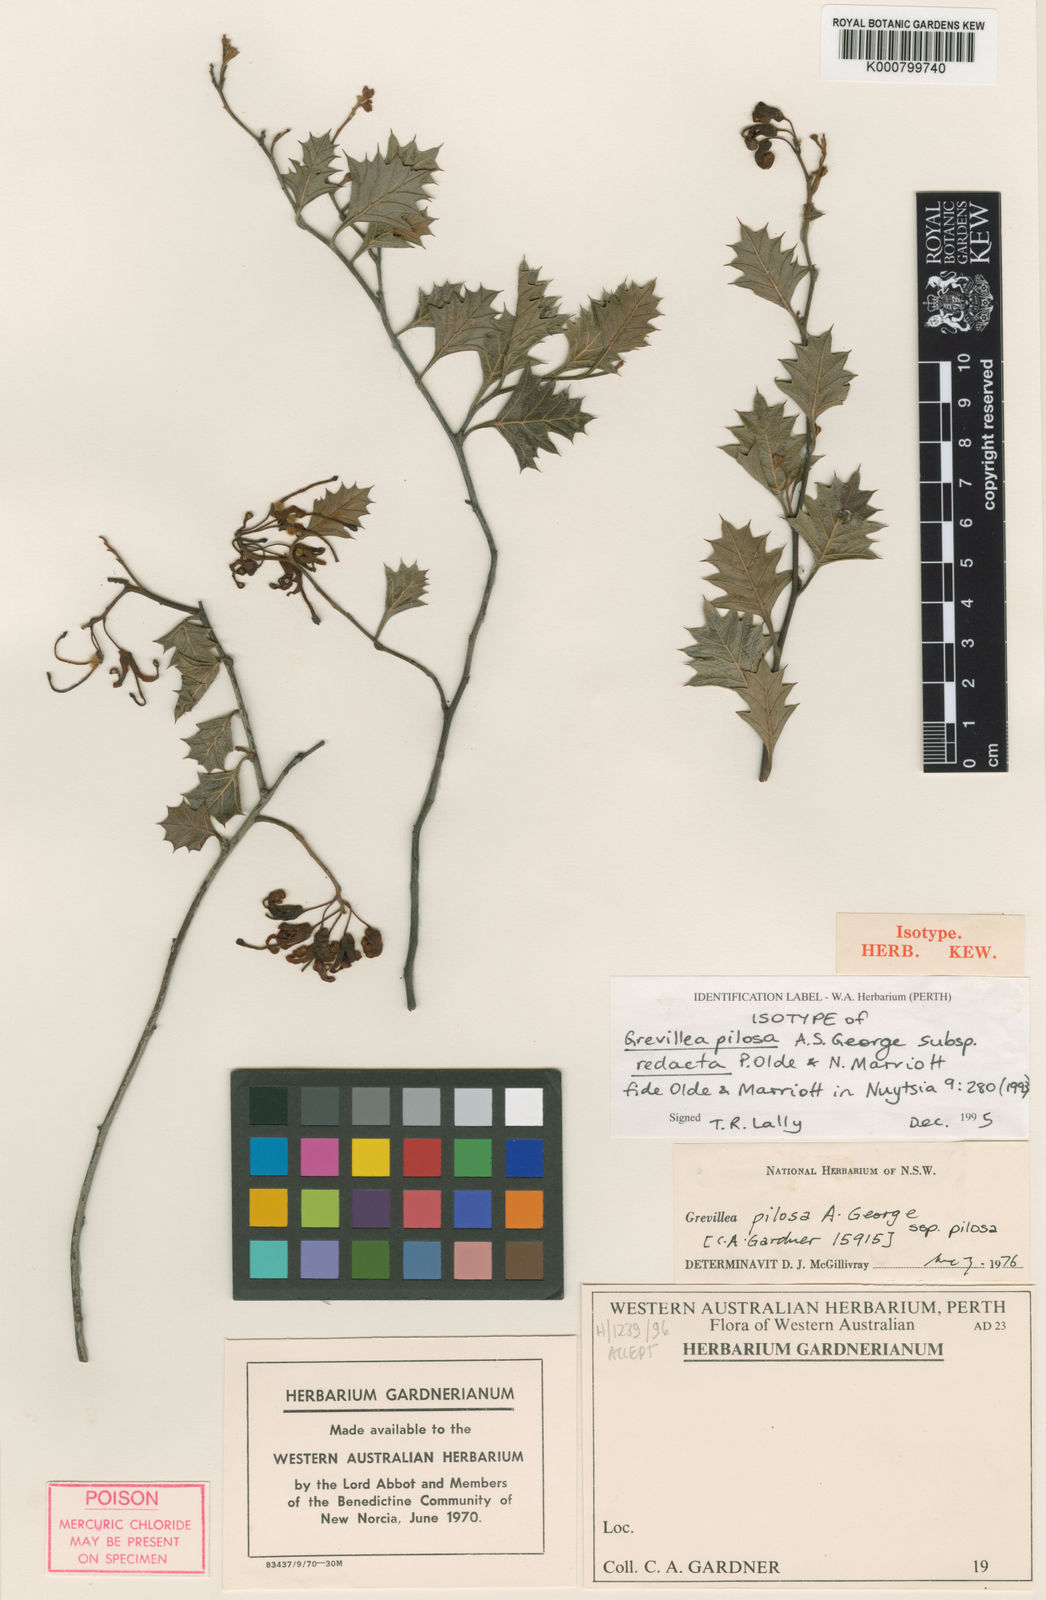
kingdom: Plantae
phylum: Tracheophyta
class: Magnoliopsida
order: Proteales
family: Proteaceae
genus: Grevillea
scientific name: Grevillea pilosa
